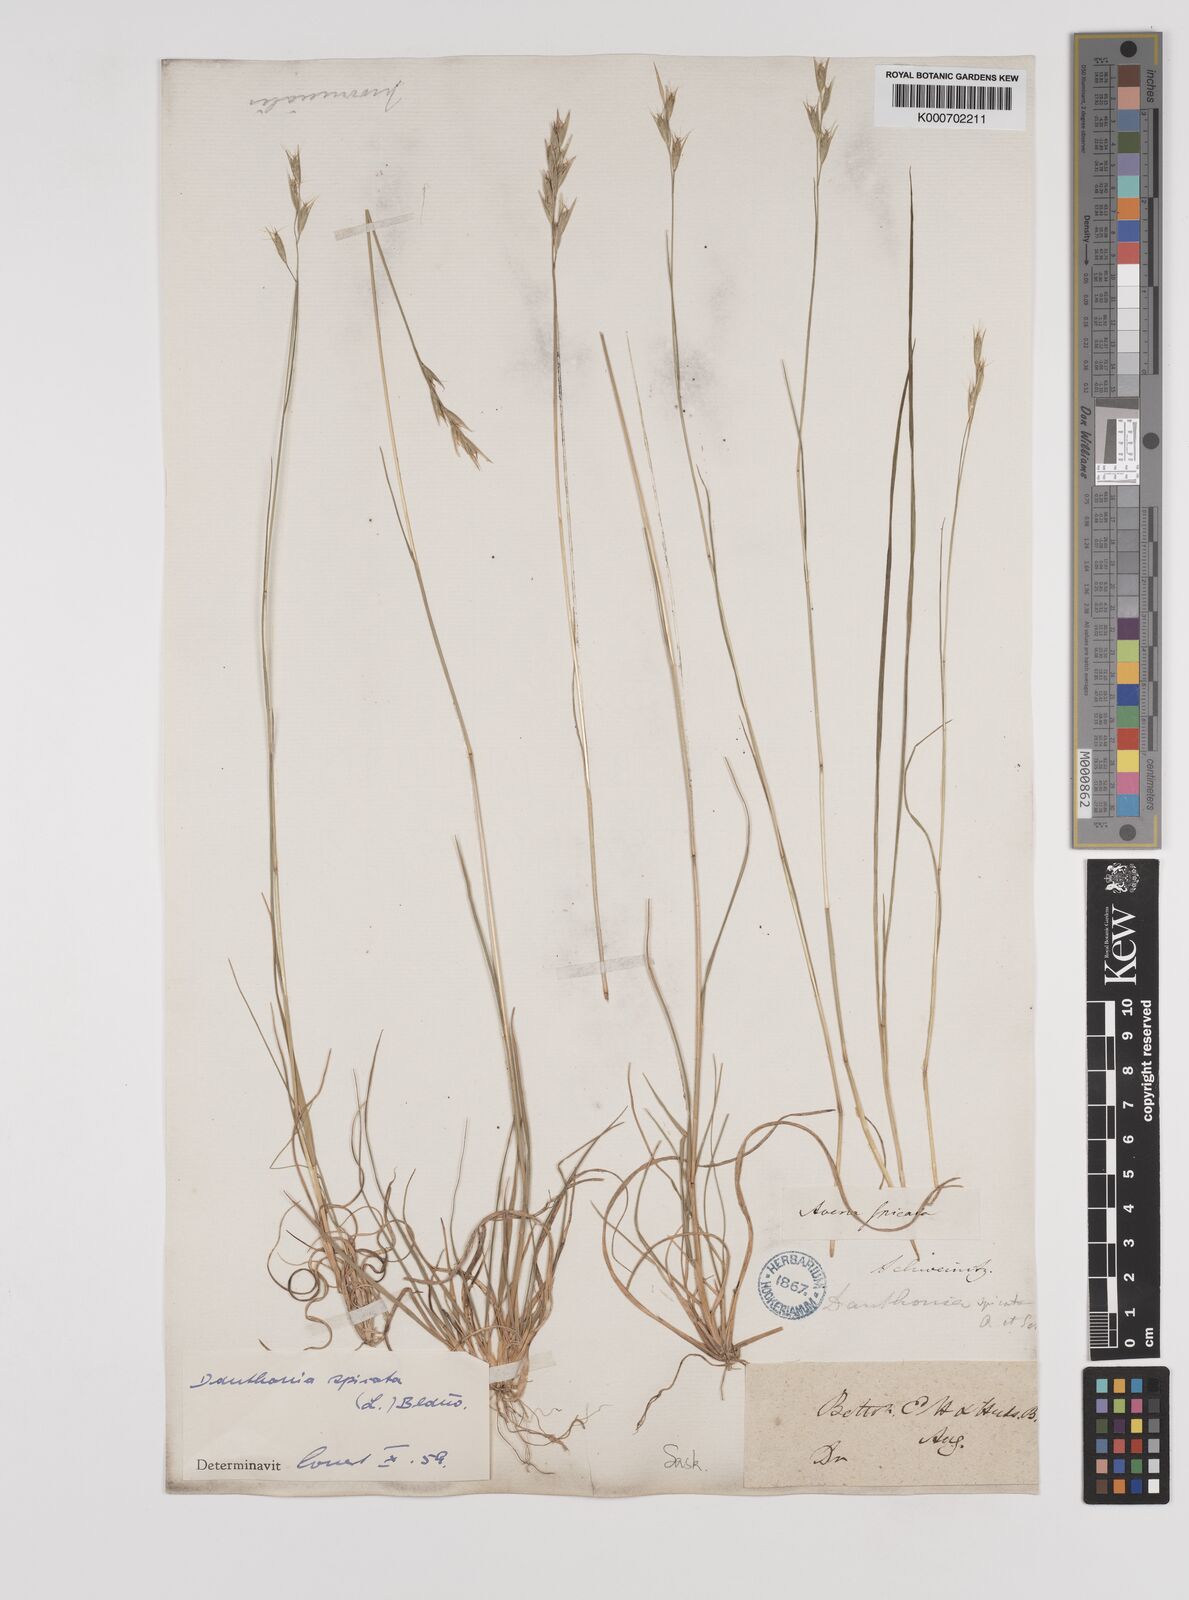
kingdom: Plantae
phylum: Tracheophyta
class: Liliopsida
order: Poales
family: Poaceae
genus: Danthonia
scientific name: Danthonia spicata
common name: Common wild oatgrass
